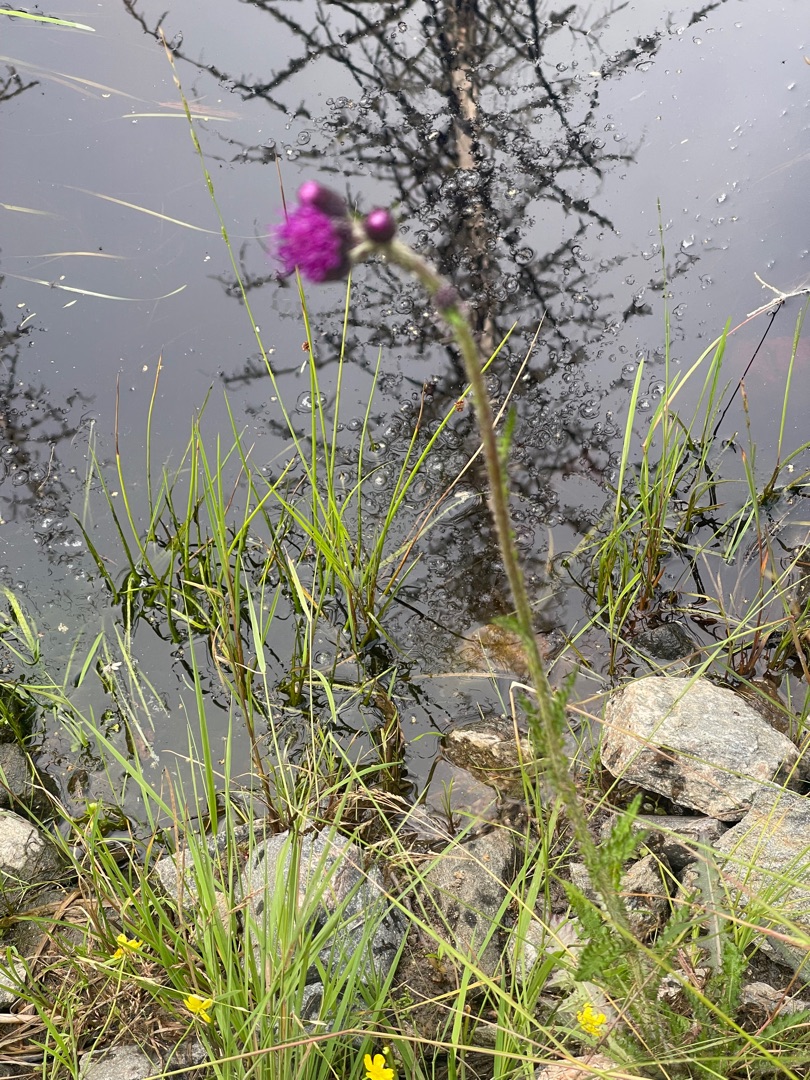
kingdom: Plantae
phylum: Tracheophyta
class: Magnoliopsida
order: Asterales
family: Asteraceae
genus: Cirsium
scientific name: Cirsium palustre
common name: Kær-tidsel
